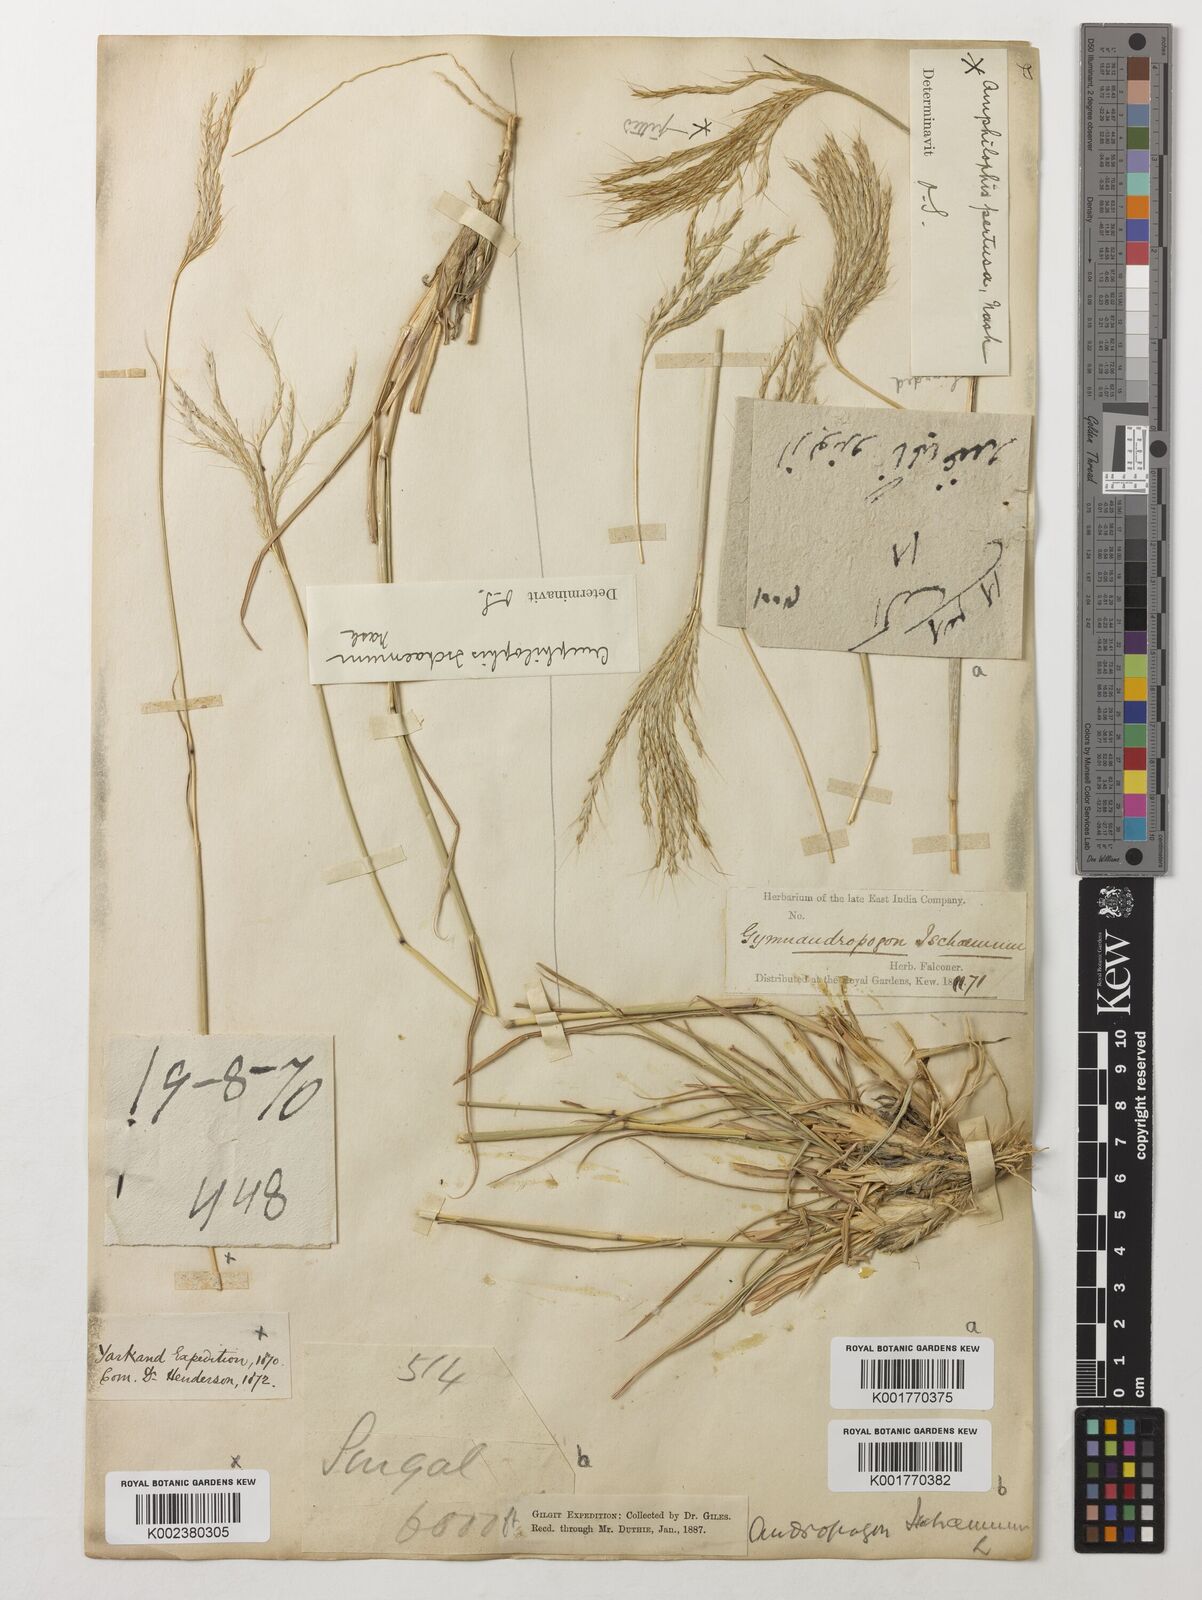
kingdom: Plantae
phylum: Tracheophyta
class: Liliopsida
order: Poales
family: Poaceae
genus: Bothriochloa
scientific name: Bothriochloa ischaemum
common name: Yellow bluestem
